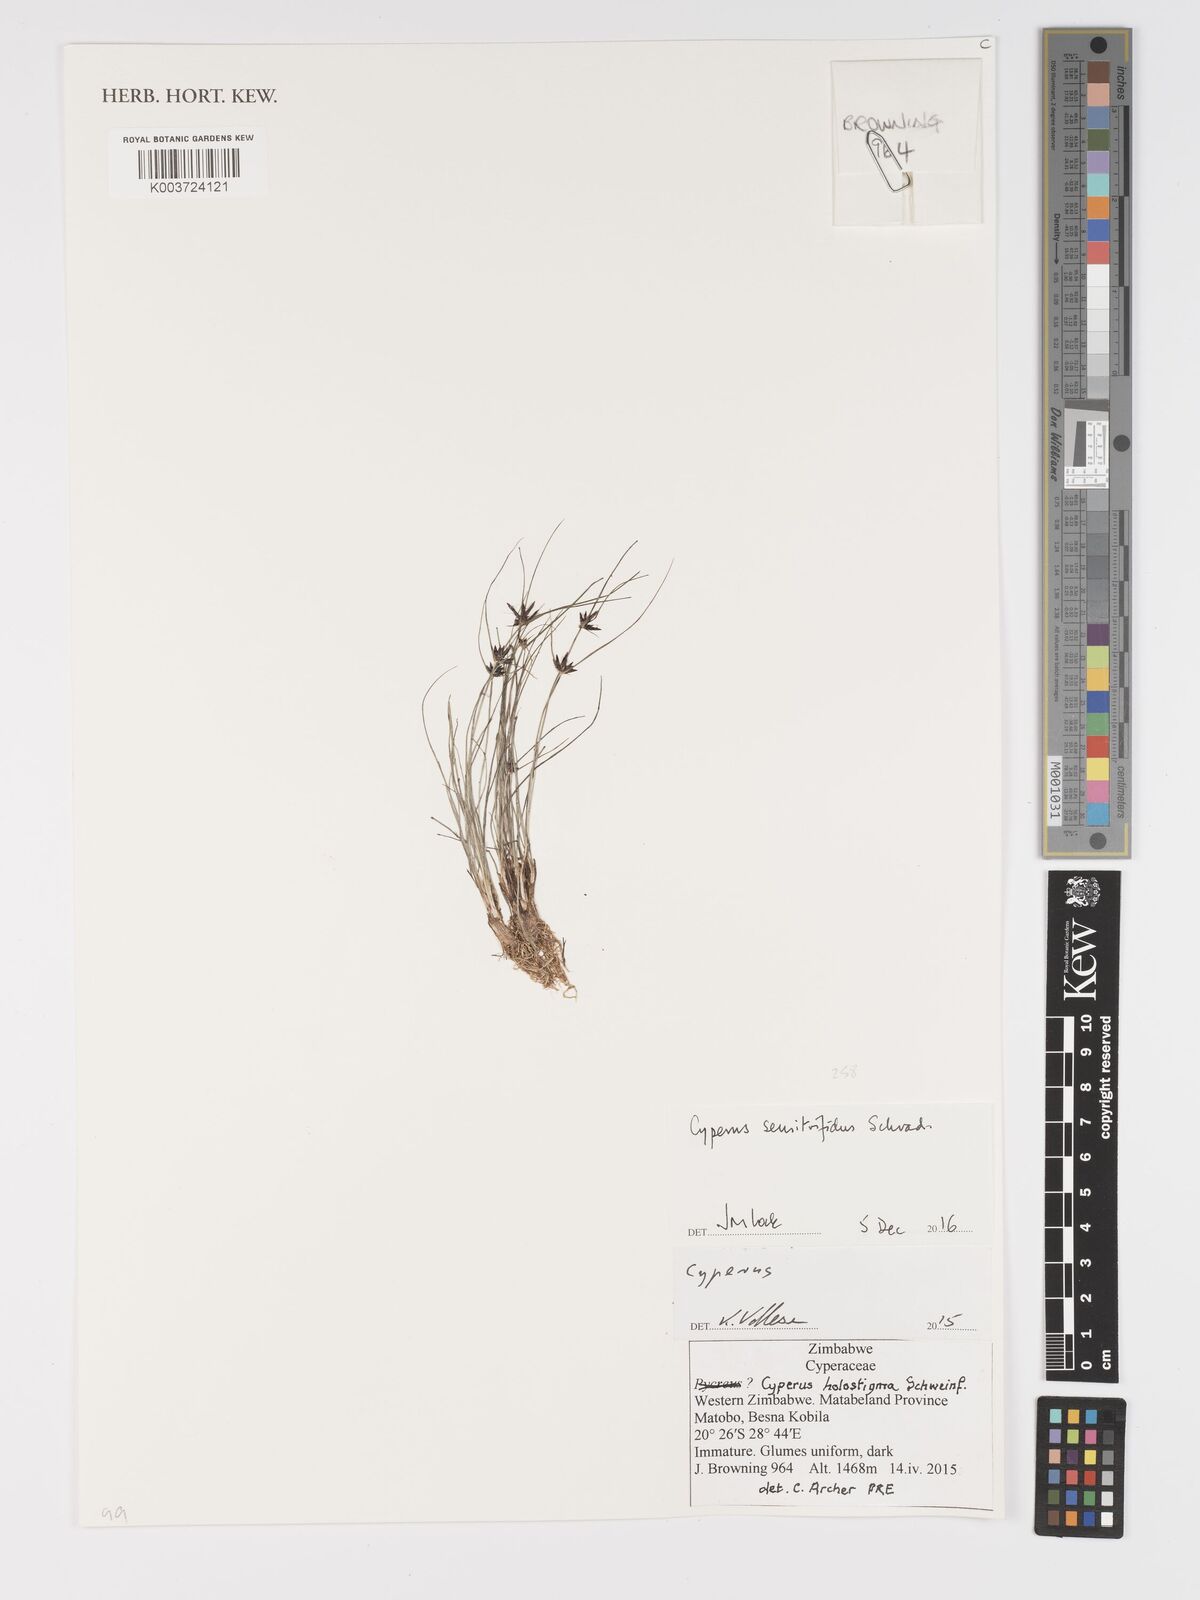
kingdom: Plantae
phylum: Tracheophyta
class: Liliopsida
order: Poales
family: Cyperaceae
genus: Cyperus
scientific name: Cyperus semitrifidus
